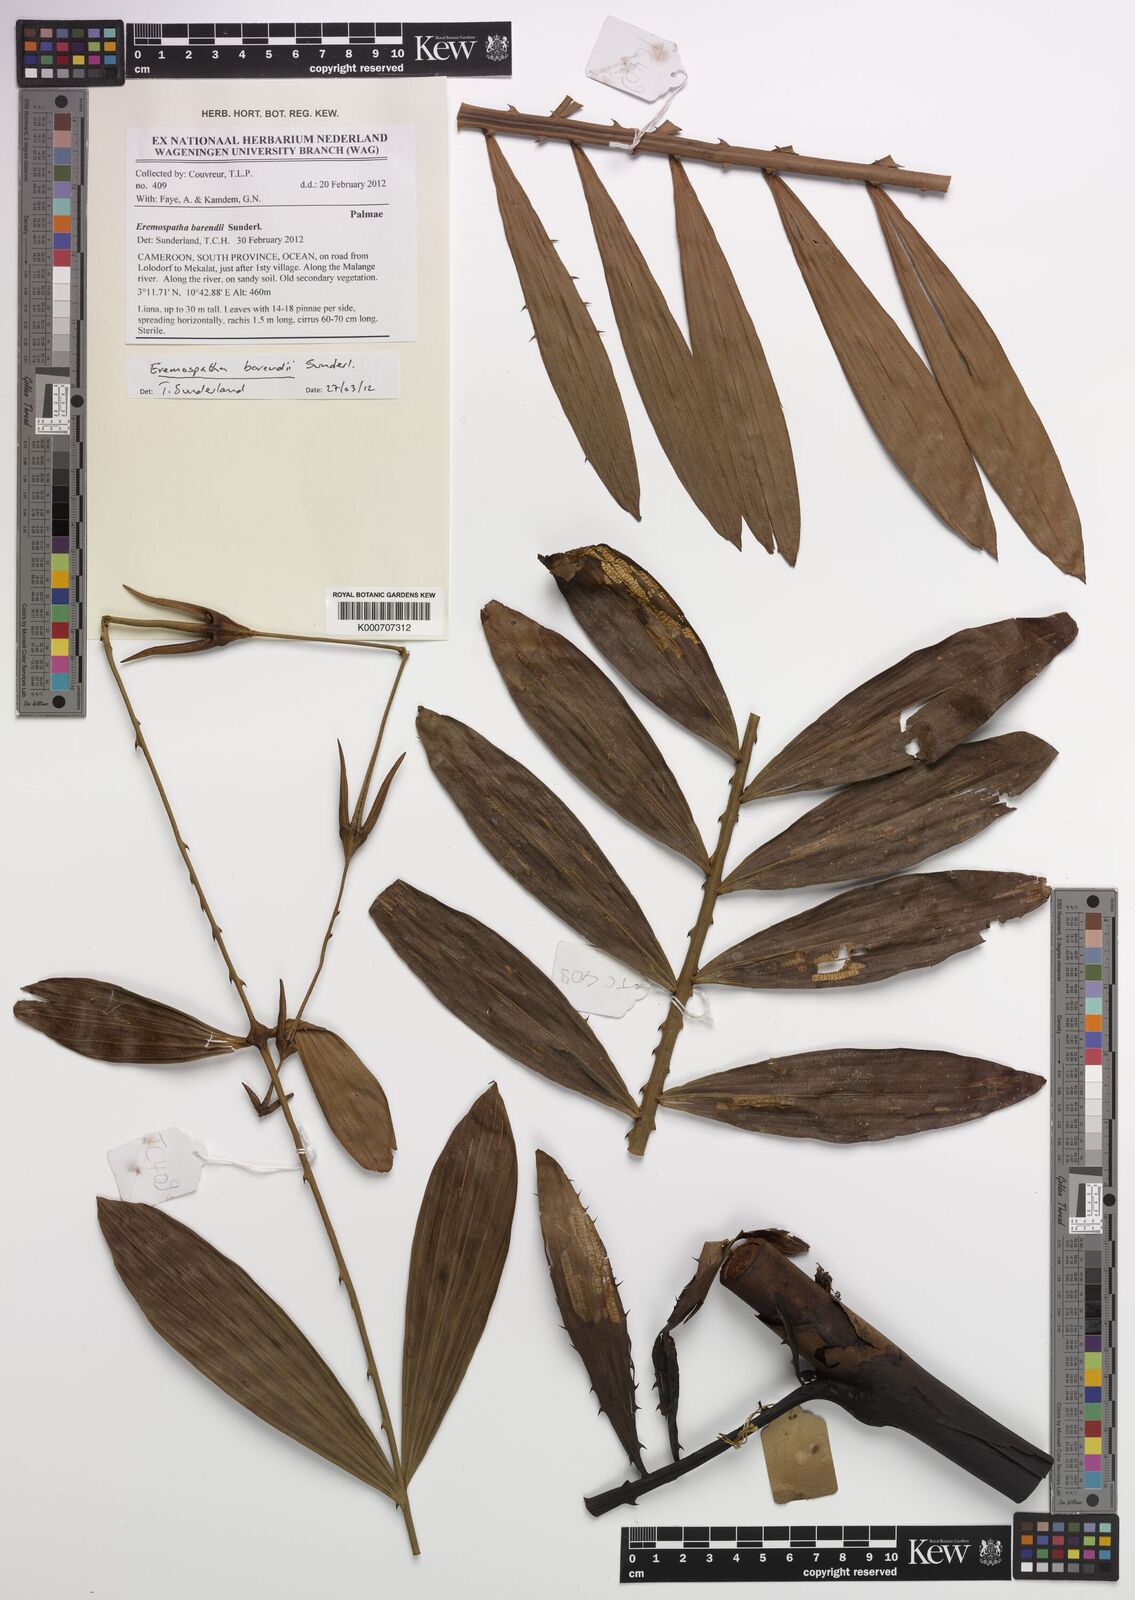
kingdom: Plantae
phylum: Tracheophyta
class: Liliopsida
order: Arecales
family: Arecaceae
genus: Eremospatha
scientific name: Eremospatha barendii
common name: Rattan
